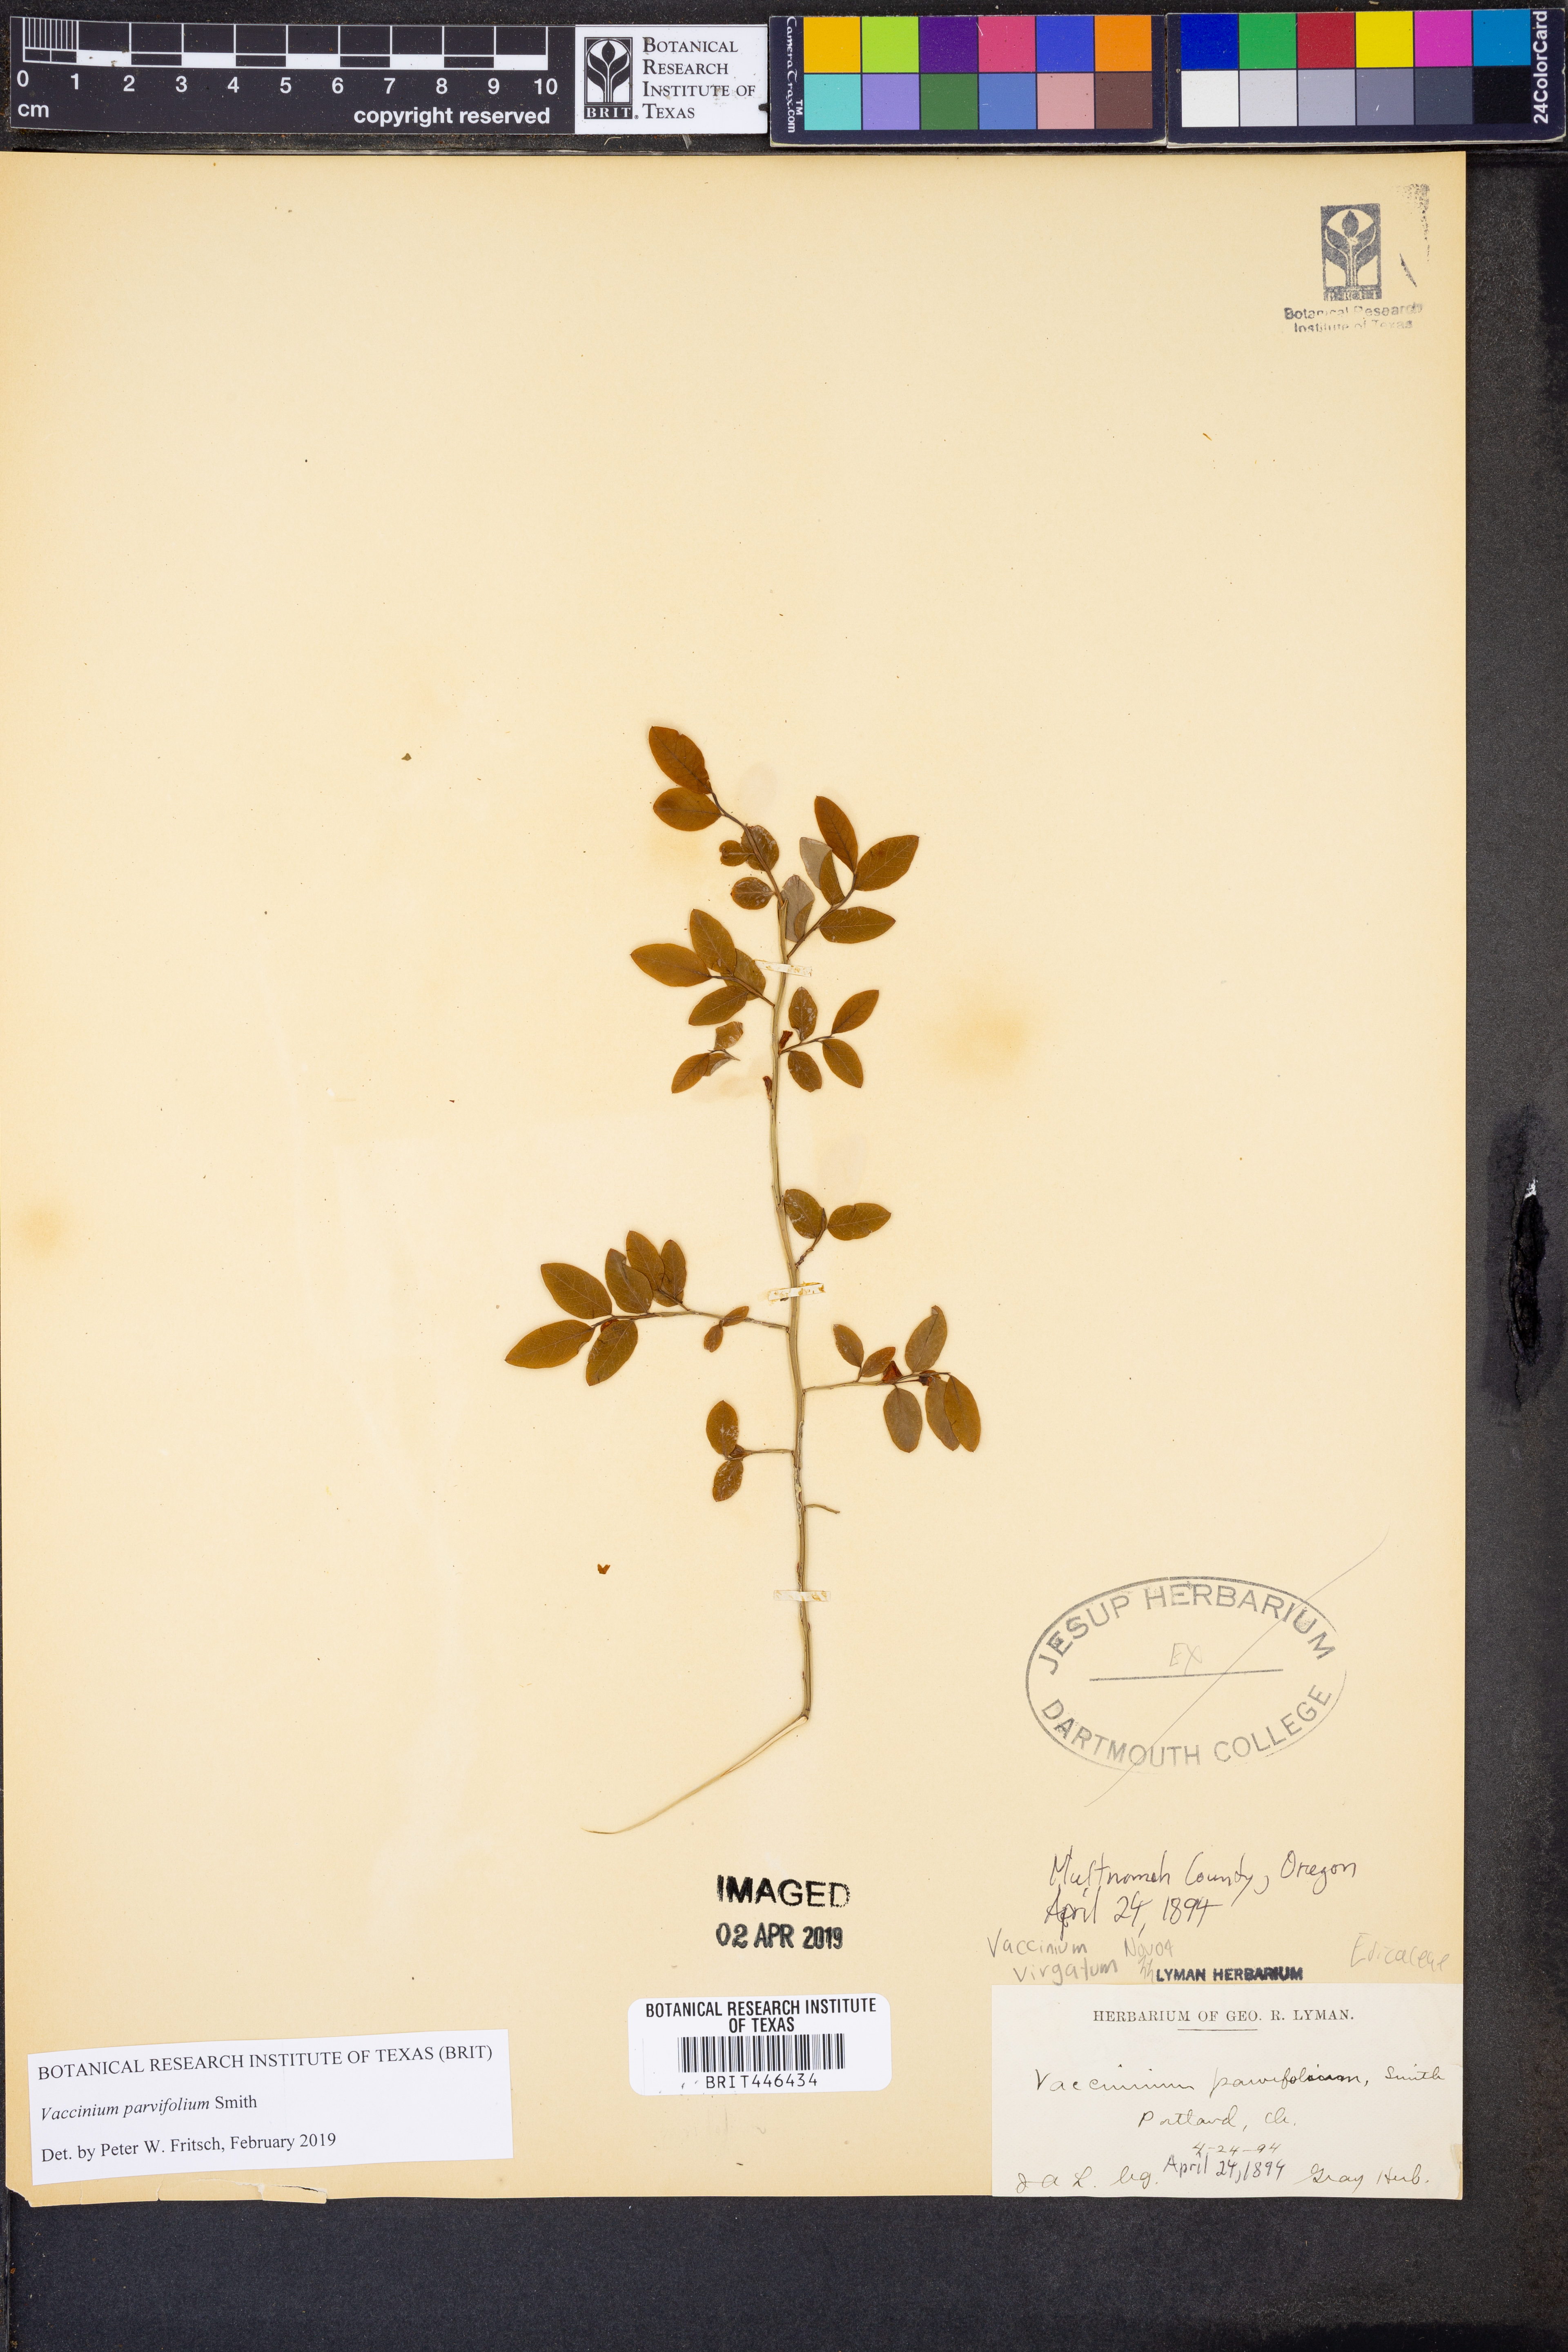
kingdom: Plantae
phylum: Tracheophyta
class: Magnoliopsida
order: Ericales
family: Ericaceae
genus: Vaccinium
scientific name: Vaccinium parvifolium
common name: Red-huckleberry
